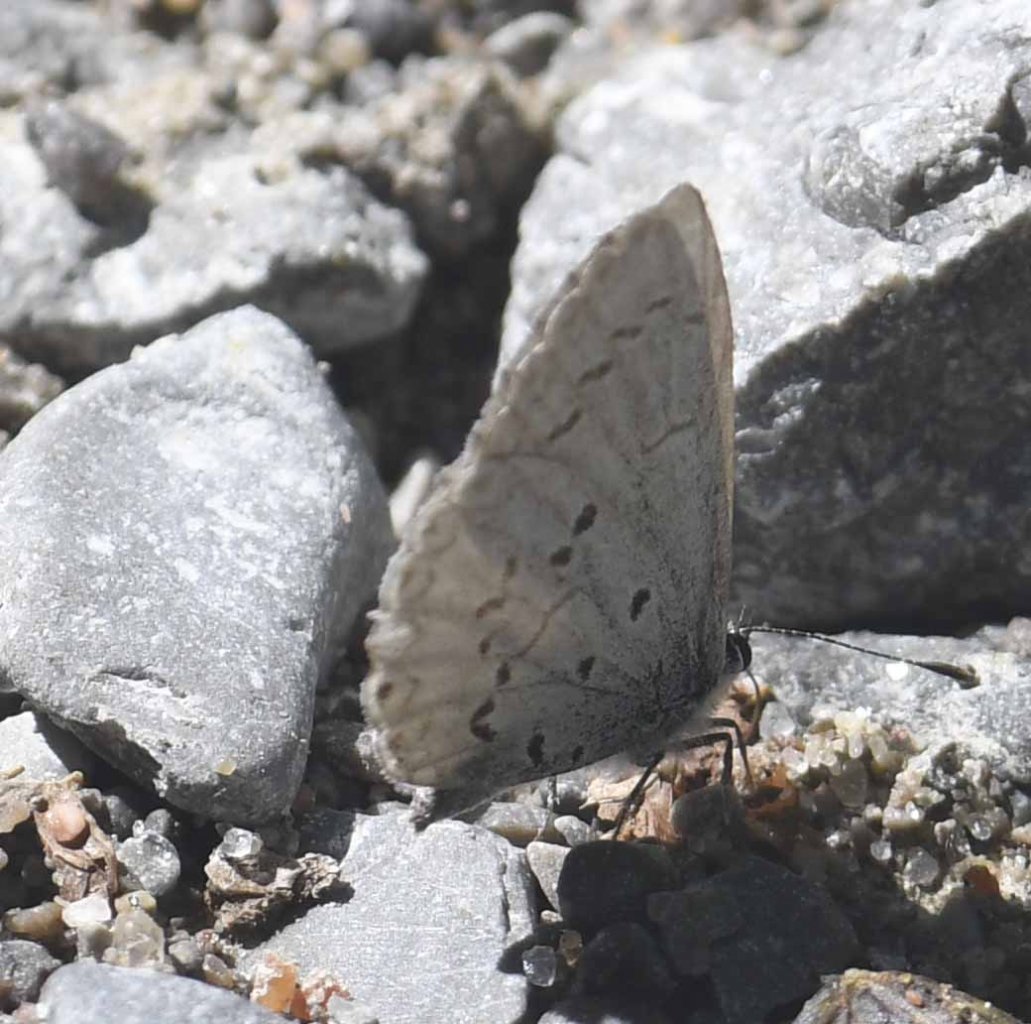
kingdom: Animalia
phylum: Arthropoda
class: Insecta
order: Lepidoptera
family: Lycaenidae
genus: Celastrina
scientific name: Celastrina lucia
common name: Northern Spring Azure
